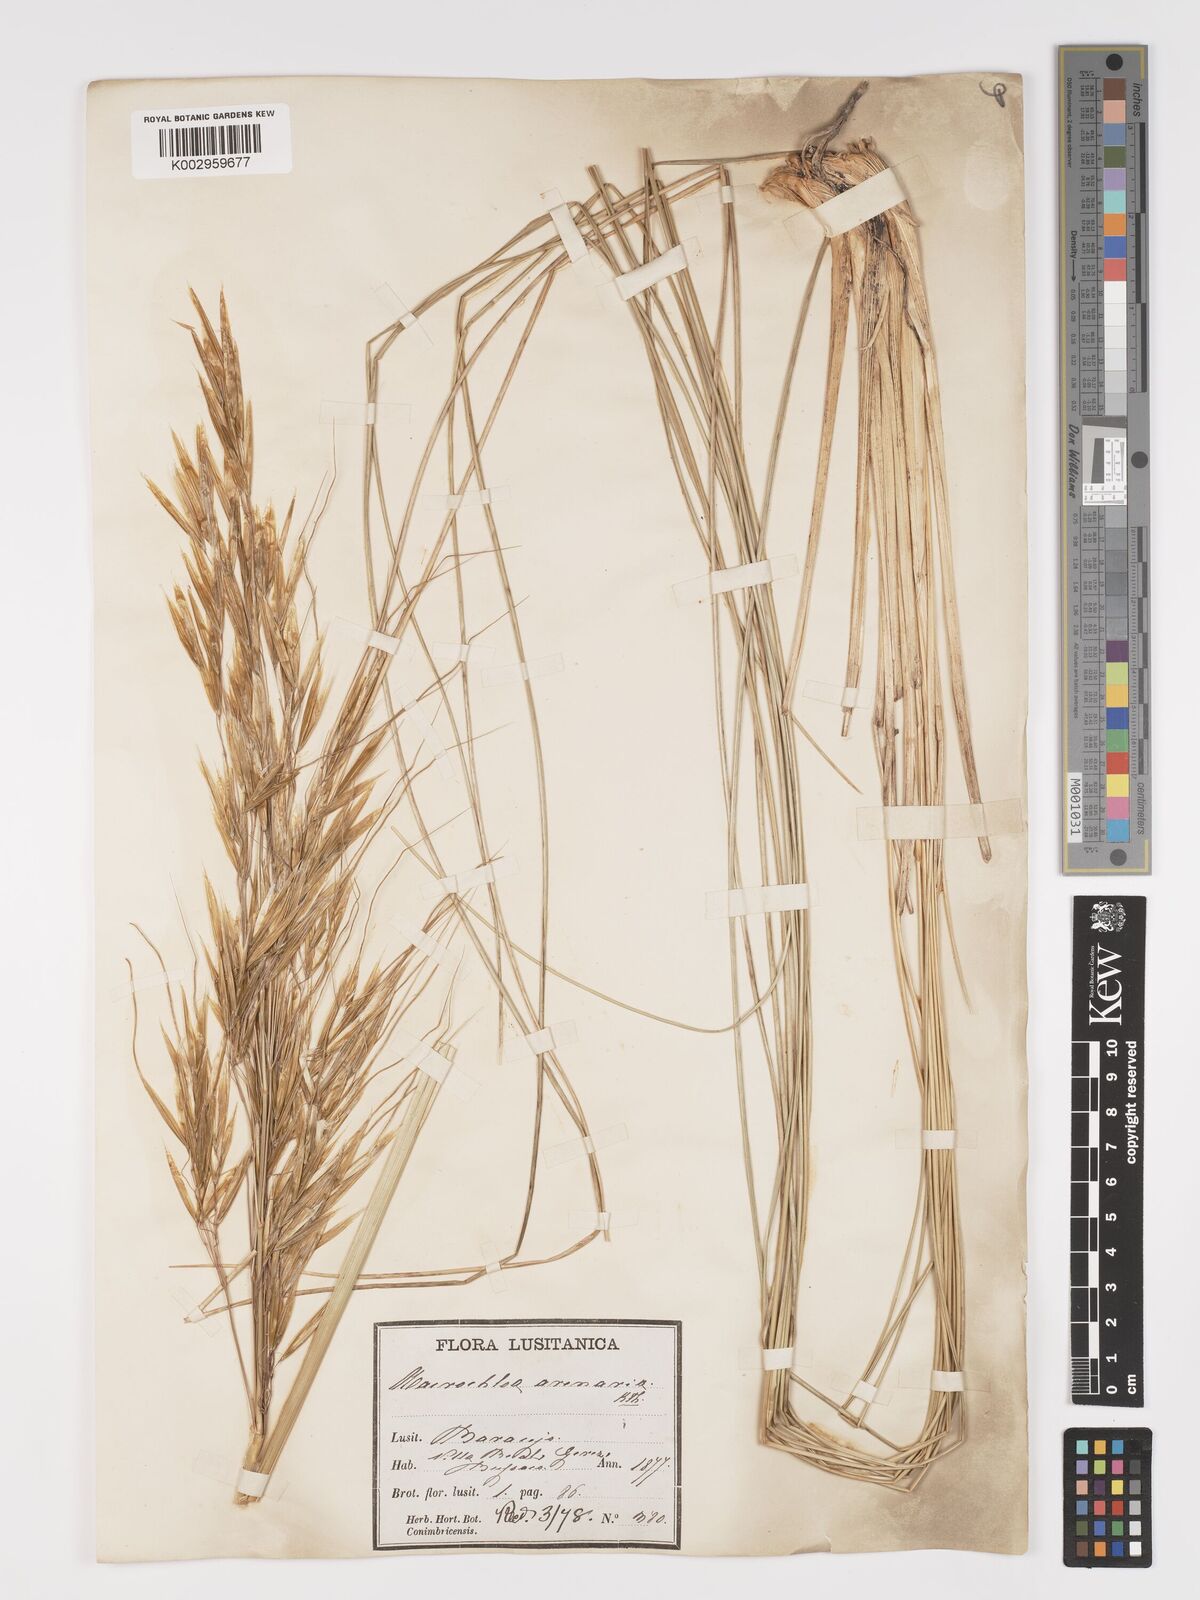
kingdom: Plantae
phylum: Tracheophyta
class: Liliopsida
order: Poales
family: Poaceae
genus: Celtica
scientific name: Celtica gigantea
